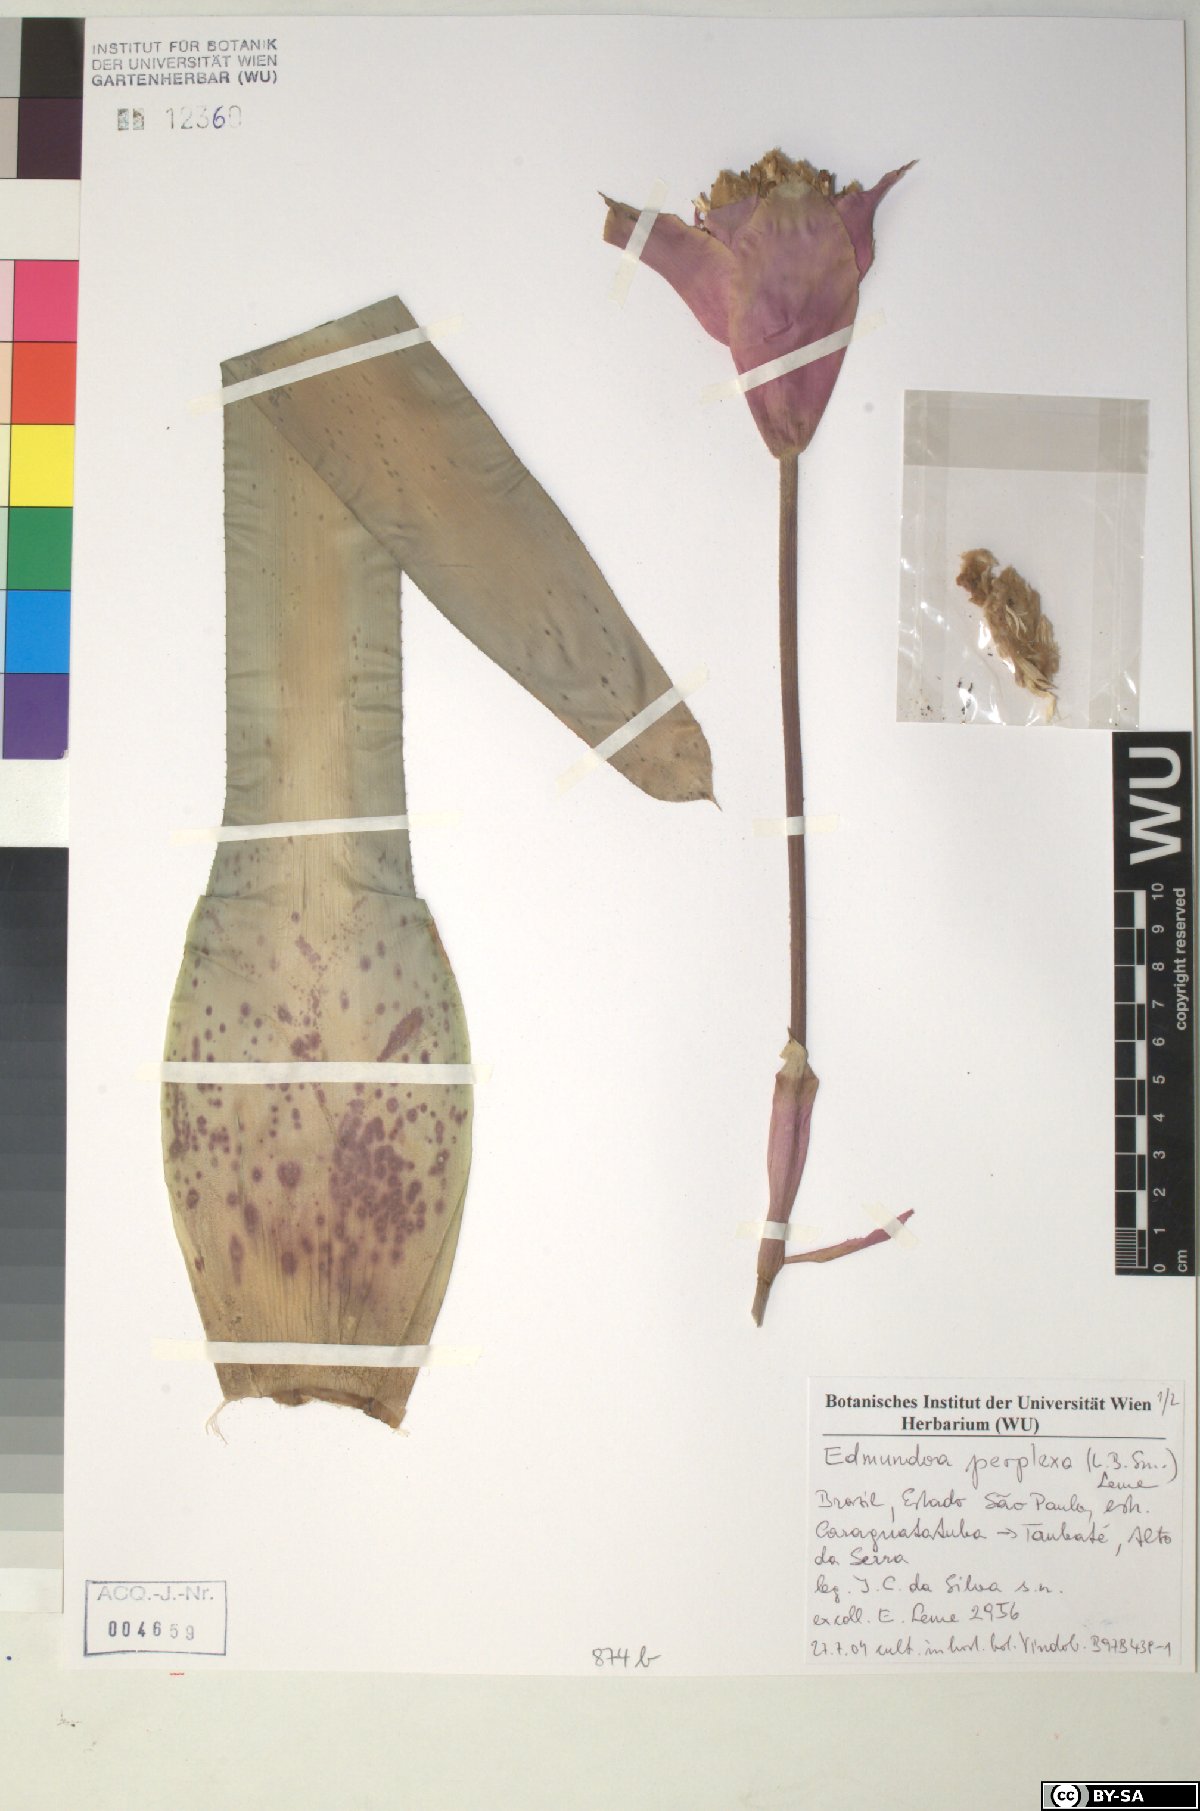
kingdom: Plantae
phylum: Tracheophyta
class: Liliopsida
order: Poales
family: Bromeliaceae
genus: Edmundoa
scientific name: Edmundoa
